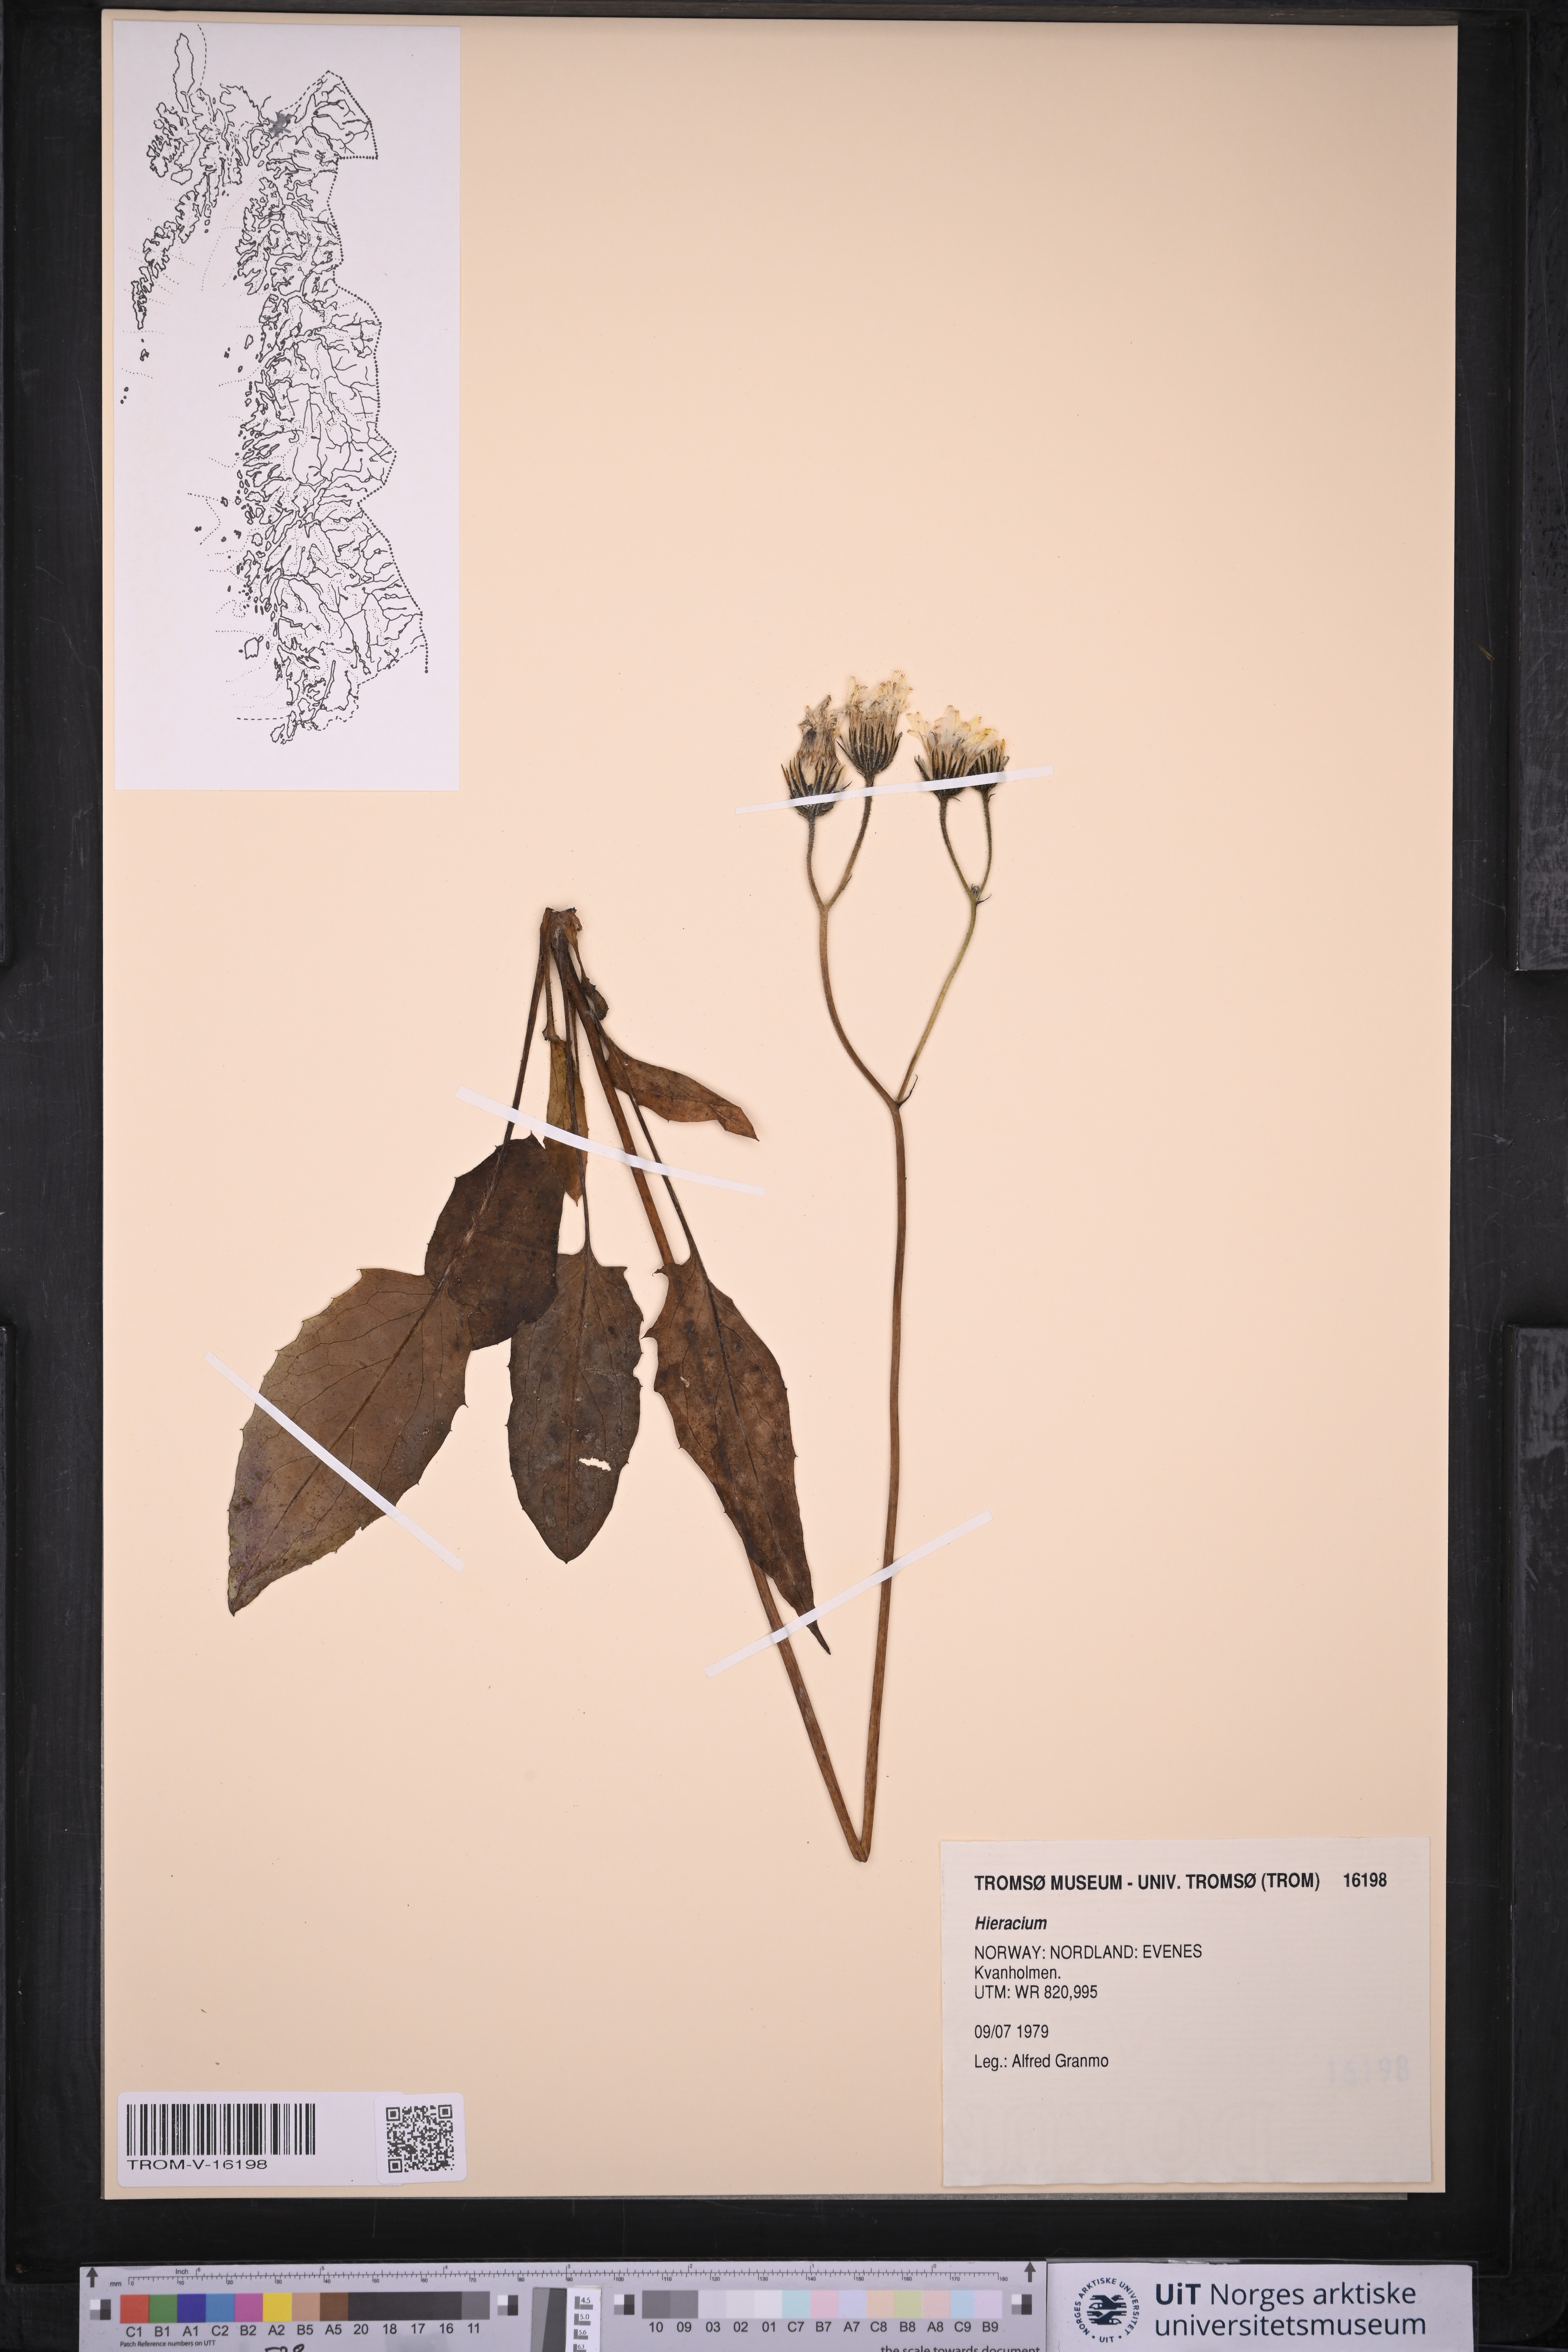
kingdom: Plantae
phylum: Tracheophyta
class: Magnoliopsida
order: Asterales
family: Asteraceae
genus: Hieracium
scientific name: Hieracium
